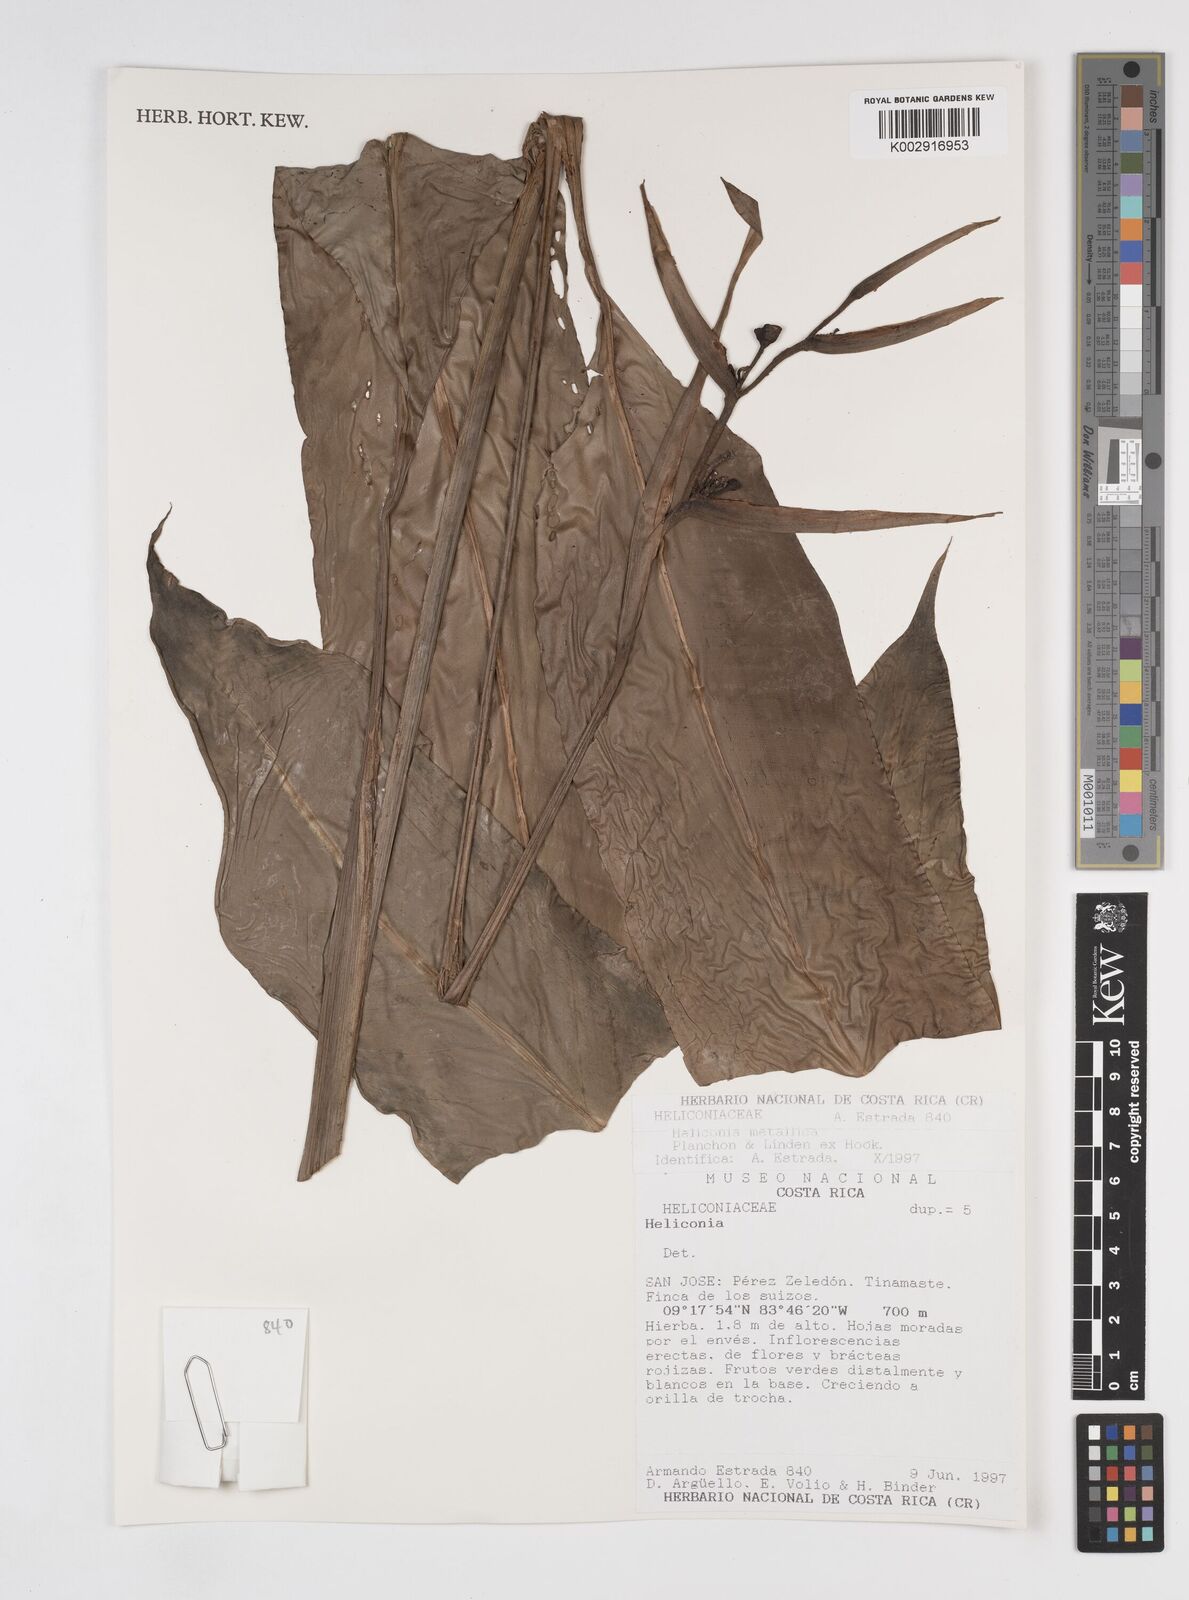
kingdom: Plantae
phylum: Tracheophyta
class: Liliopsida
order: Zingiberales
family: Heliconiaceae
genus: Heliconia
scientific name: Heliconia metallica
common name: Shining bird of paradise
